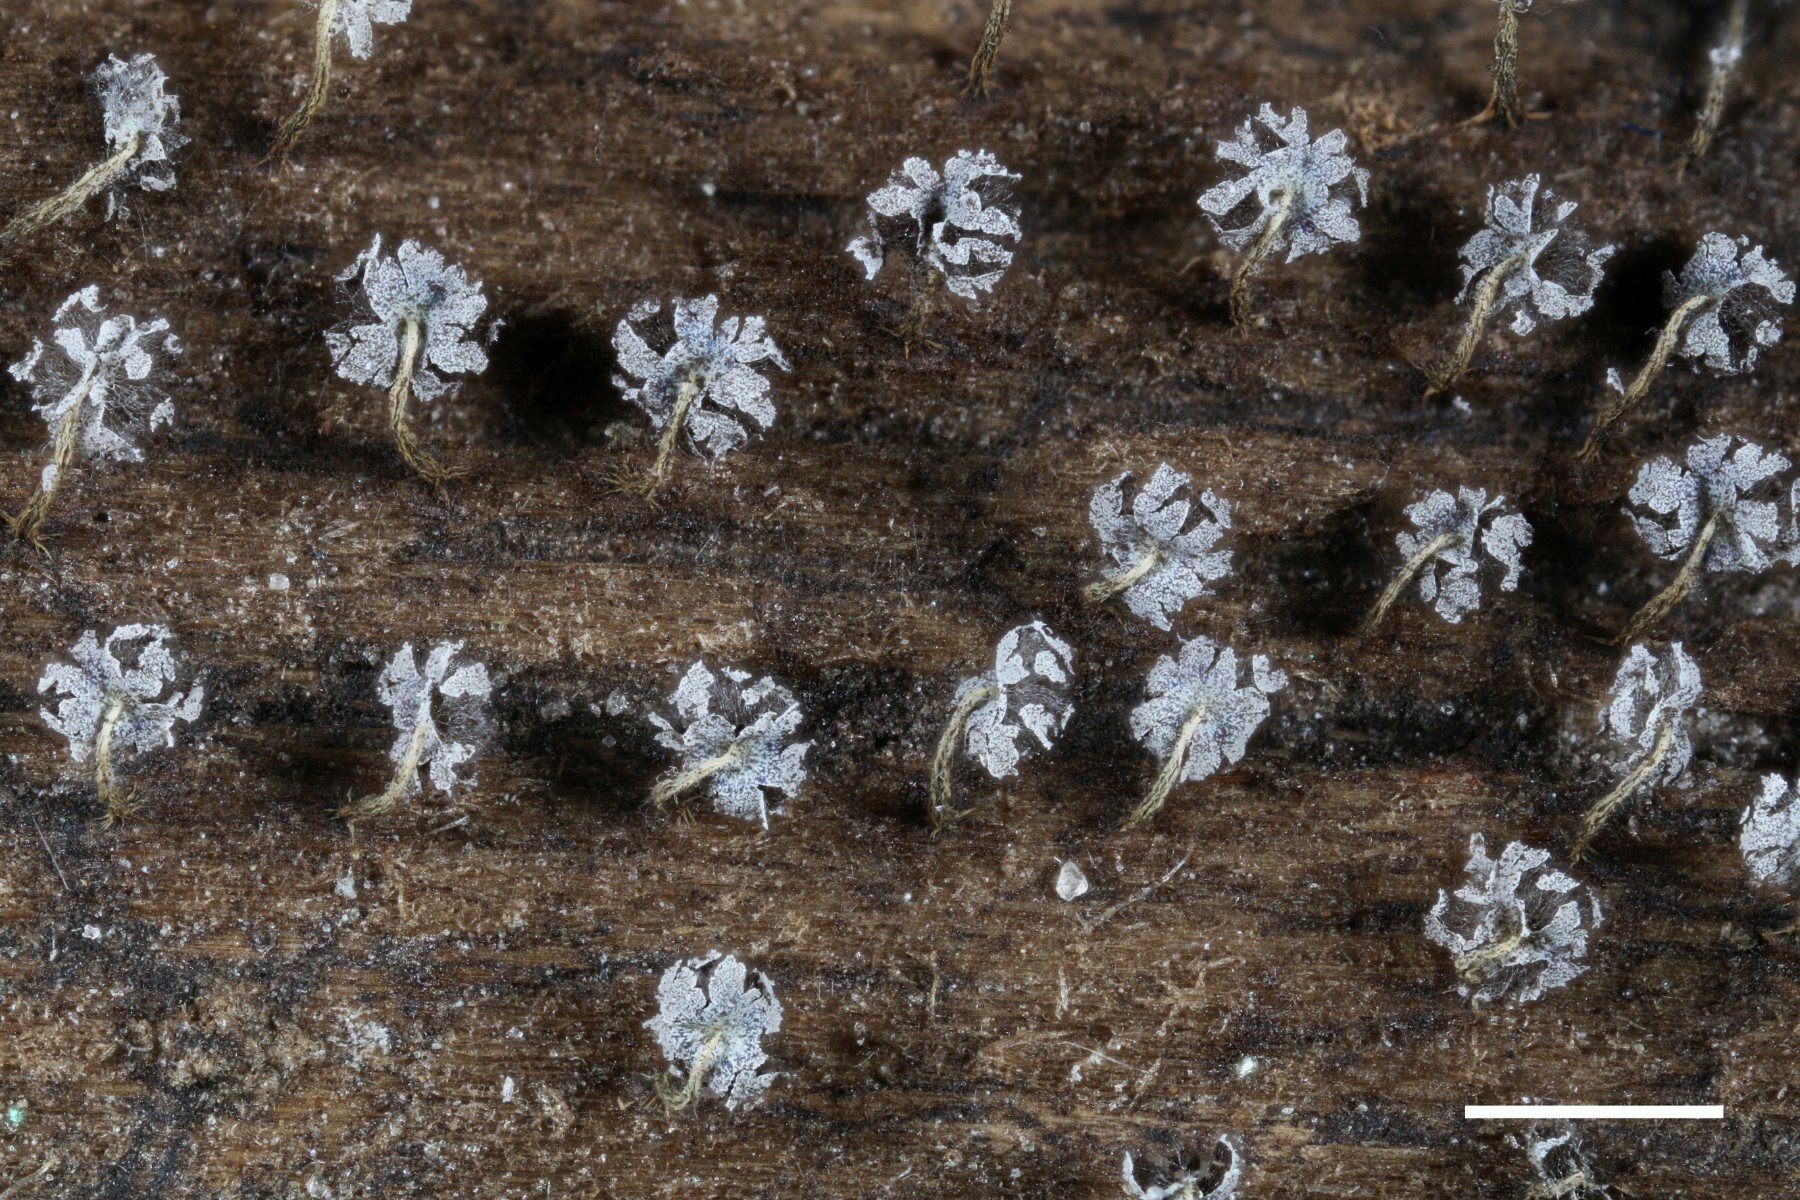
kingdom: Protozoa
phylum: Mycetozoa
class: Myxomycetes
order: Physarales
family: Physaraceae
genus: Physarum
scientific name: Physarum album
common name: nikkende støvknop
